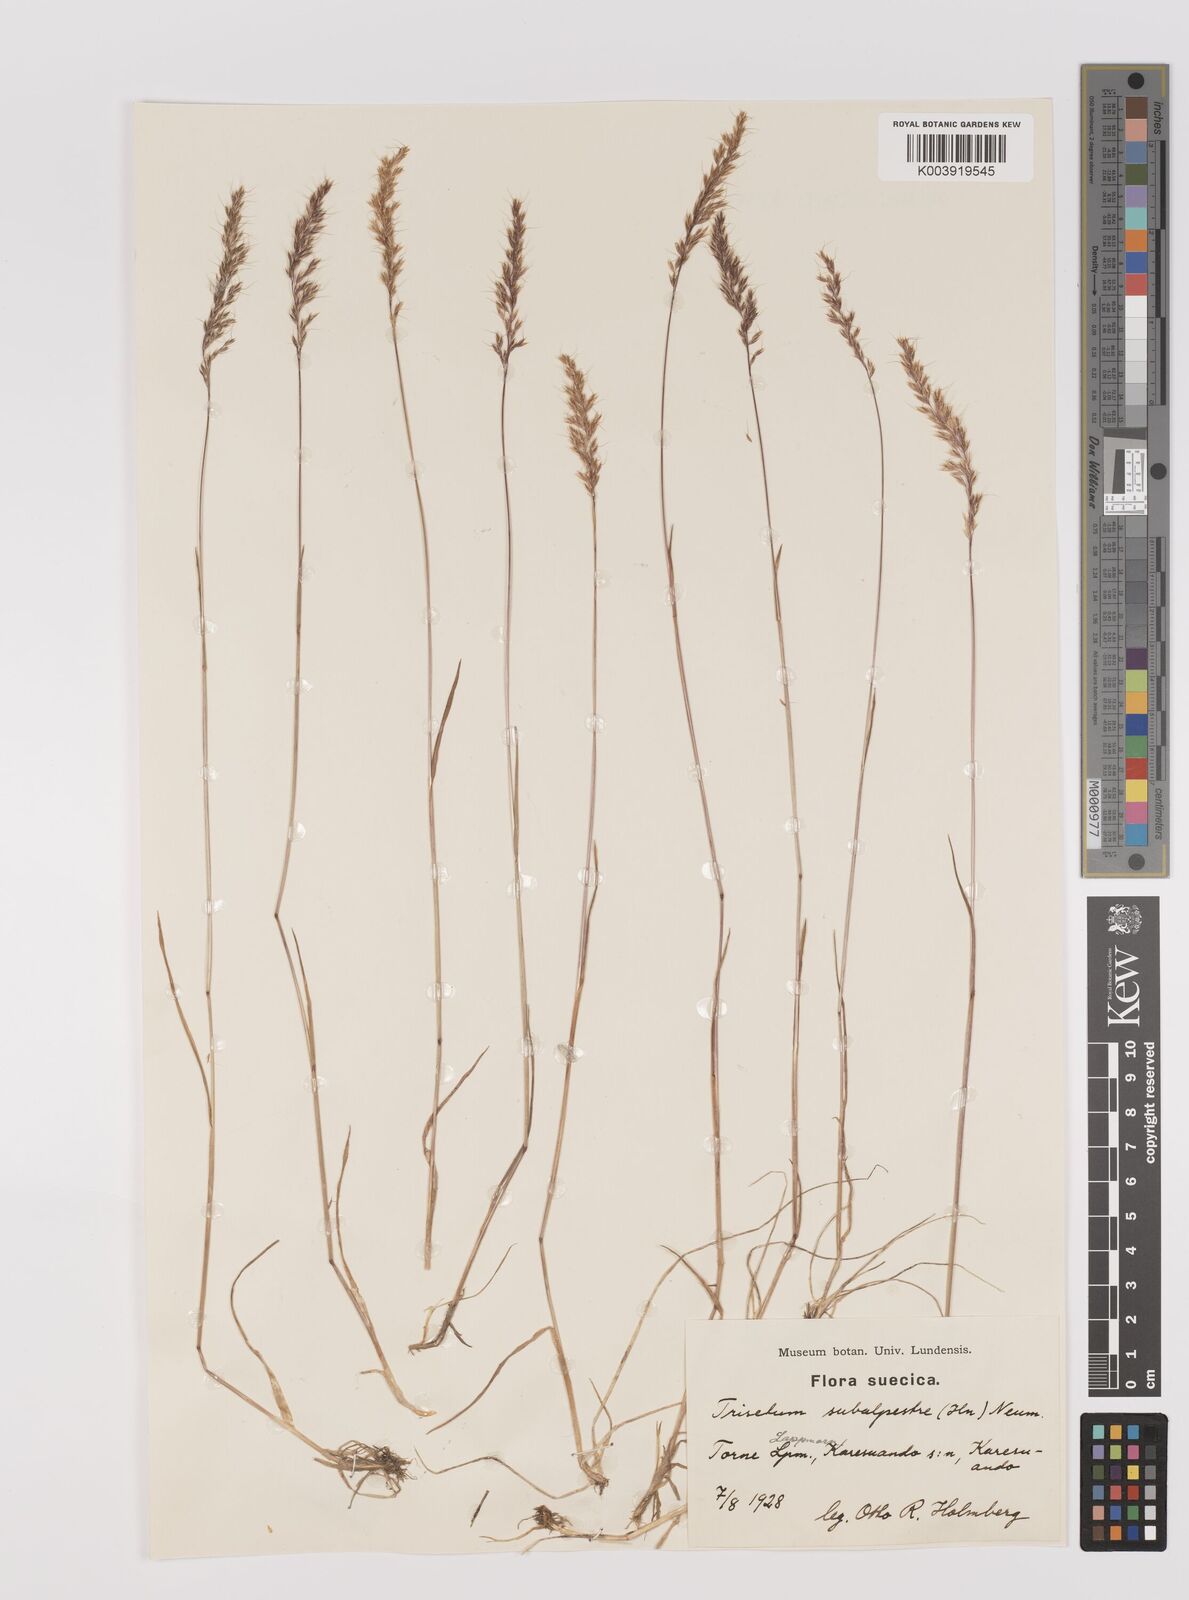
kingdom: Plantae
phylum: Tracheophyta
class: Liliopsida
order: Poales
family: Poaceae
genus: Koeleria
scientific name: Koeleria subalpestris
